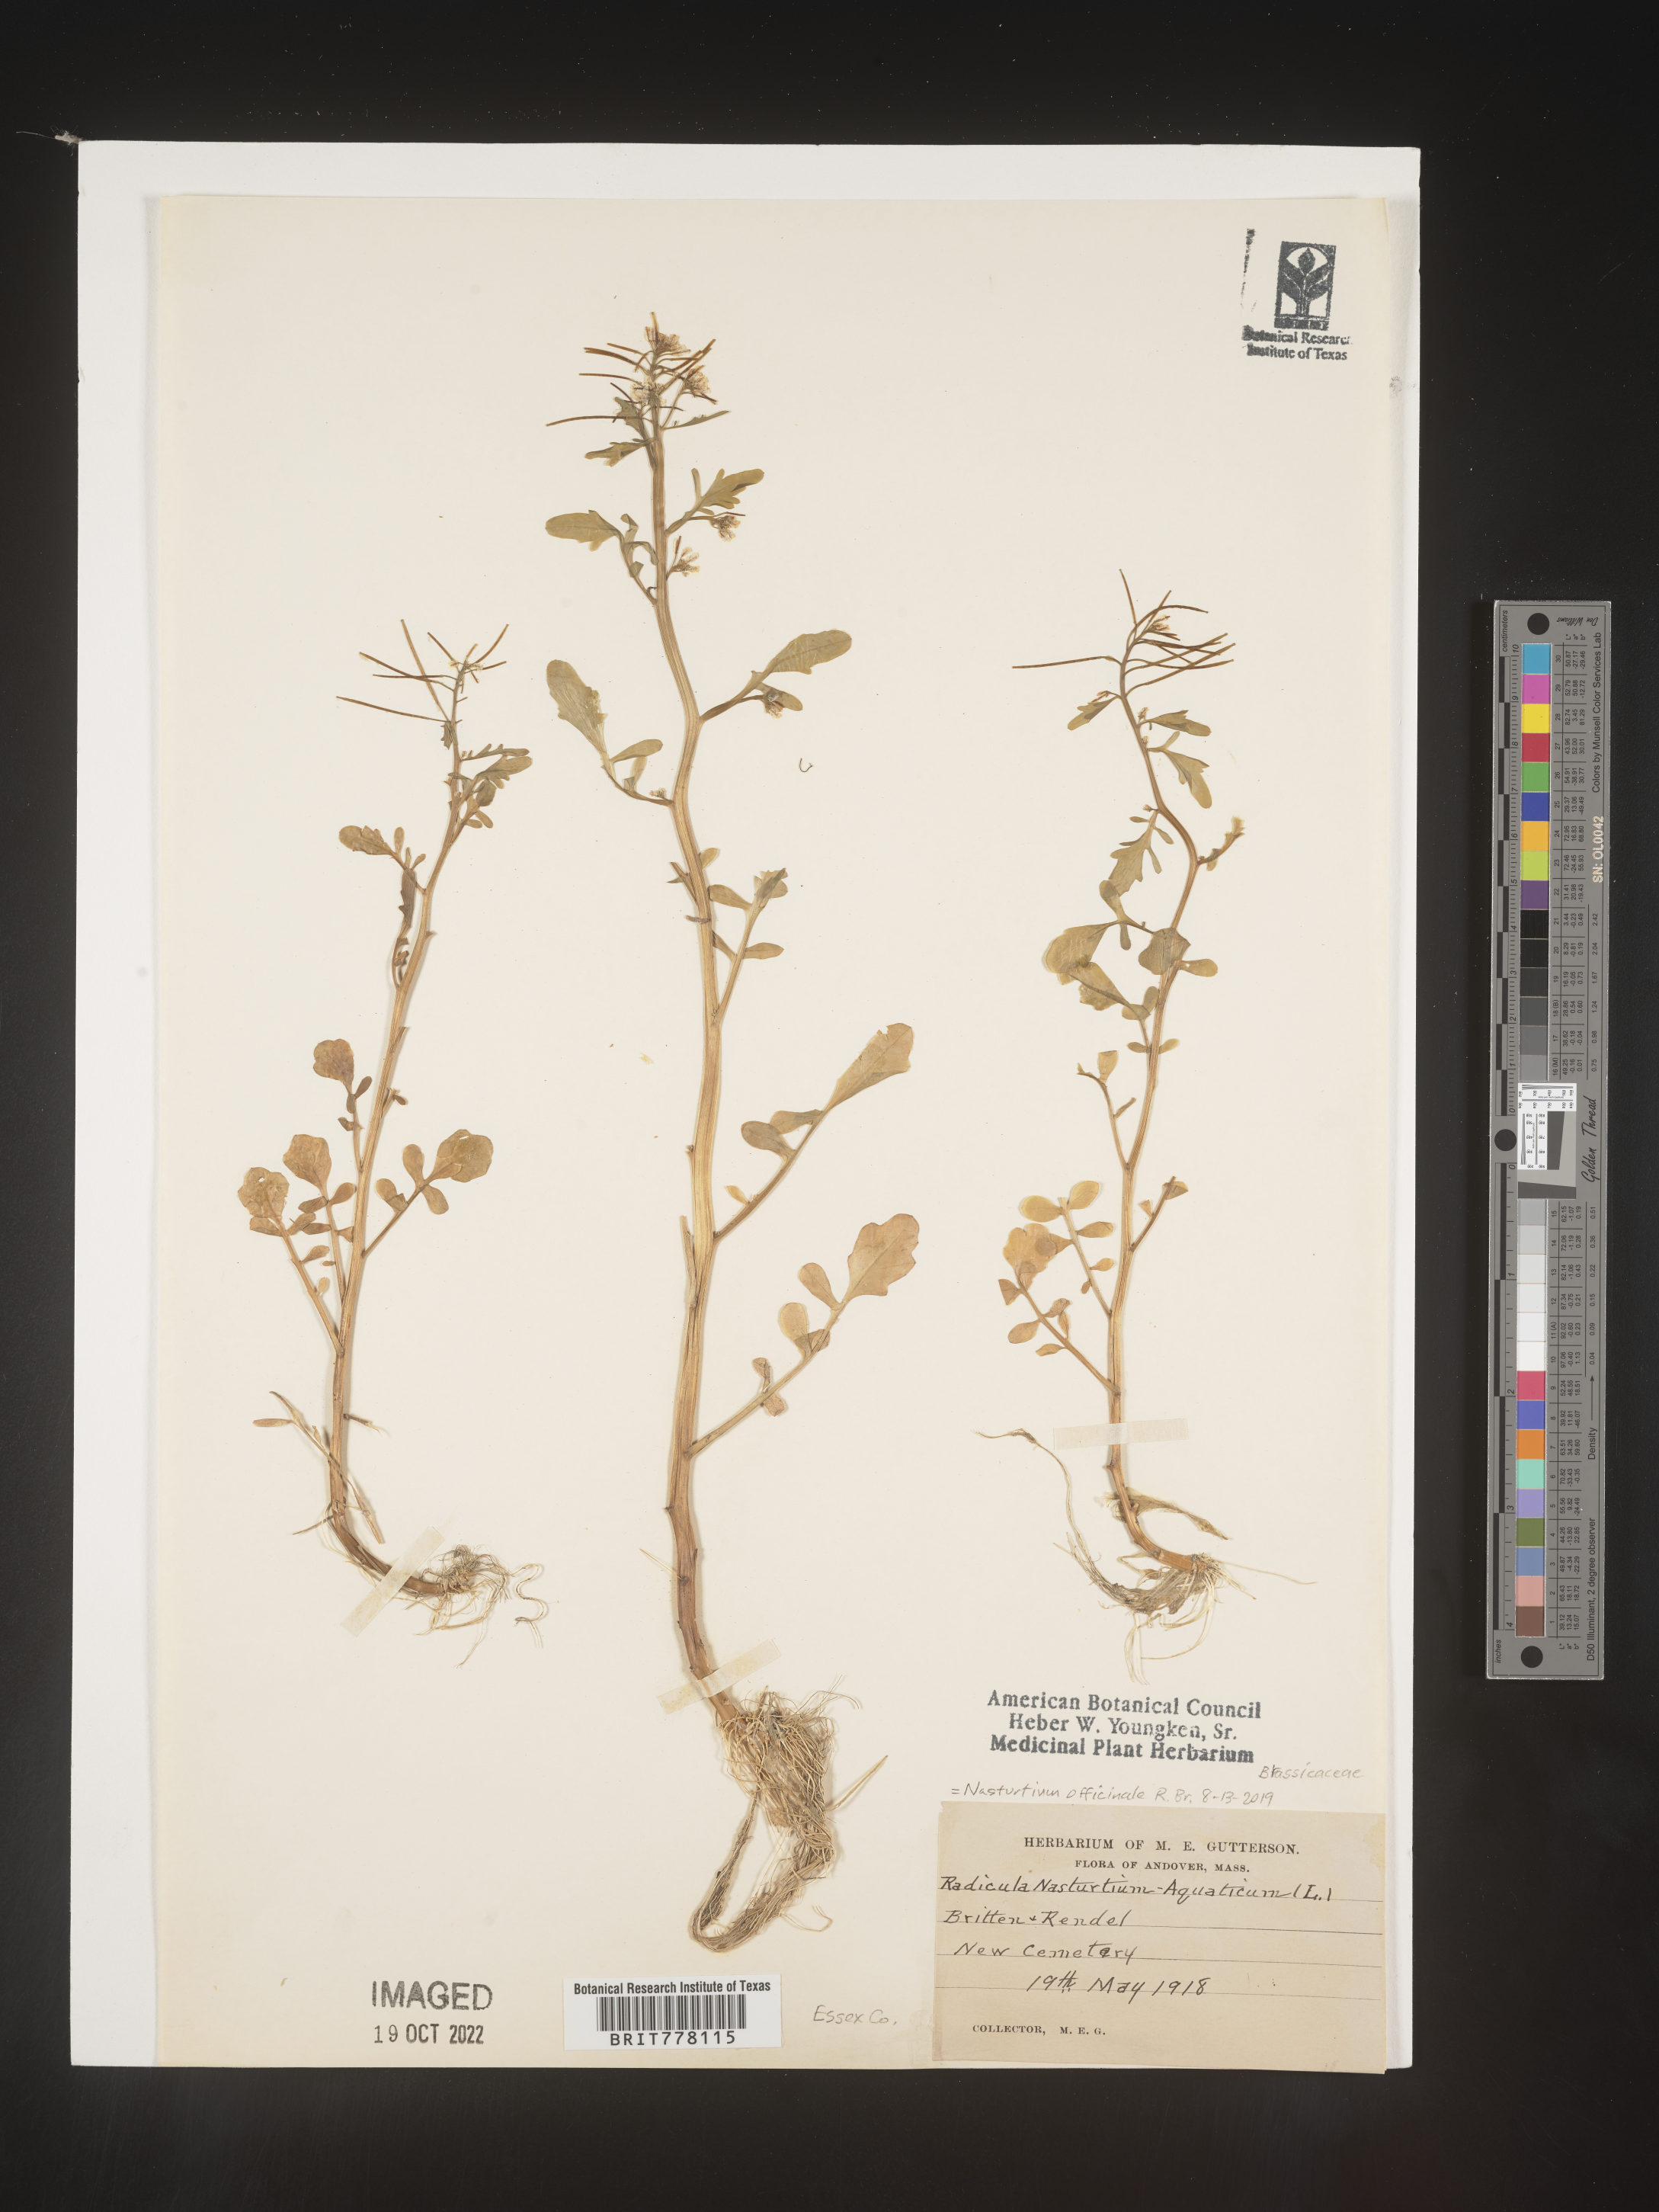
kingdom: Plantae
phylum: Tracheophyta
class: Magnoliopsida
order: Brassicales
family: Brassicaceae
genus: Nasturtium
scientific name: Nasturtium
